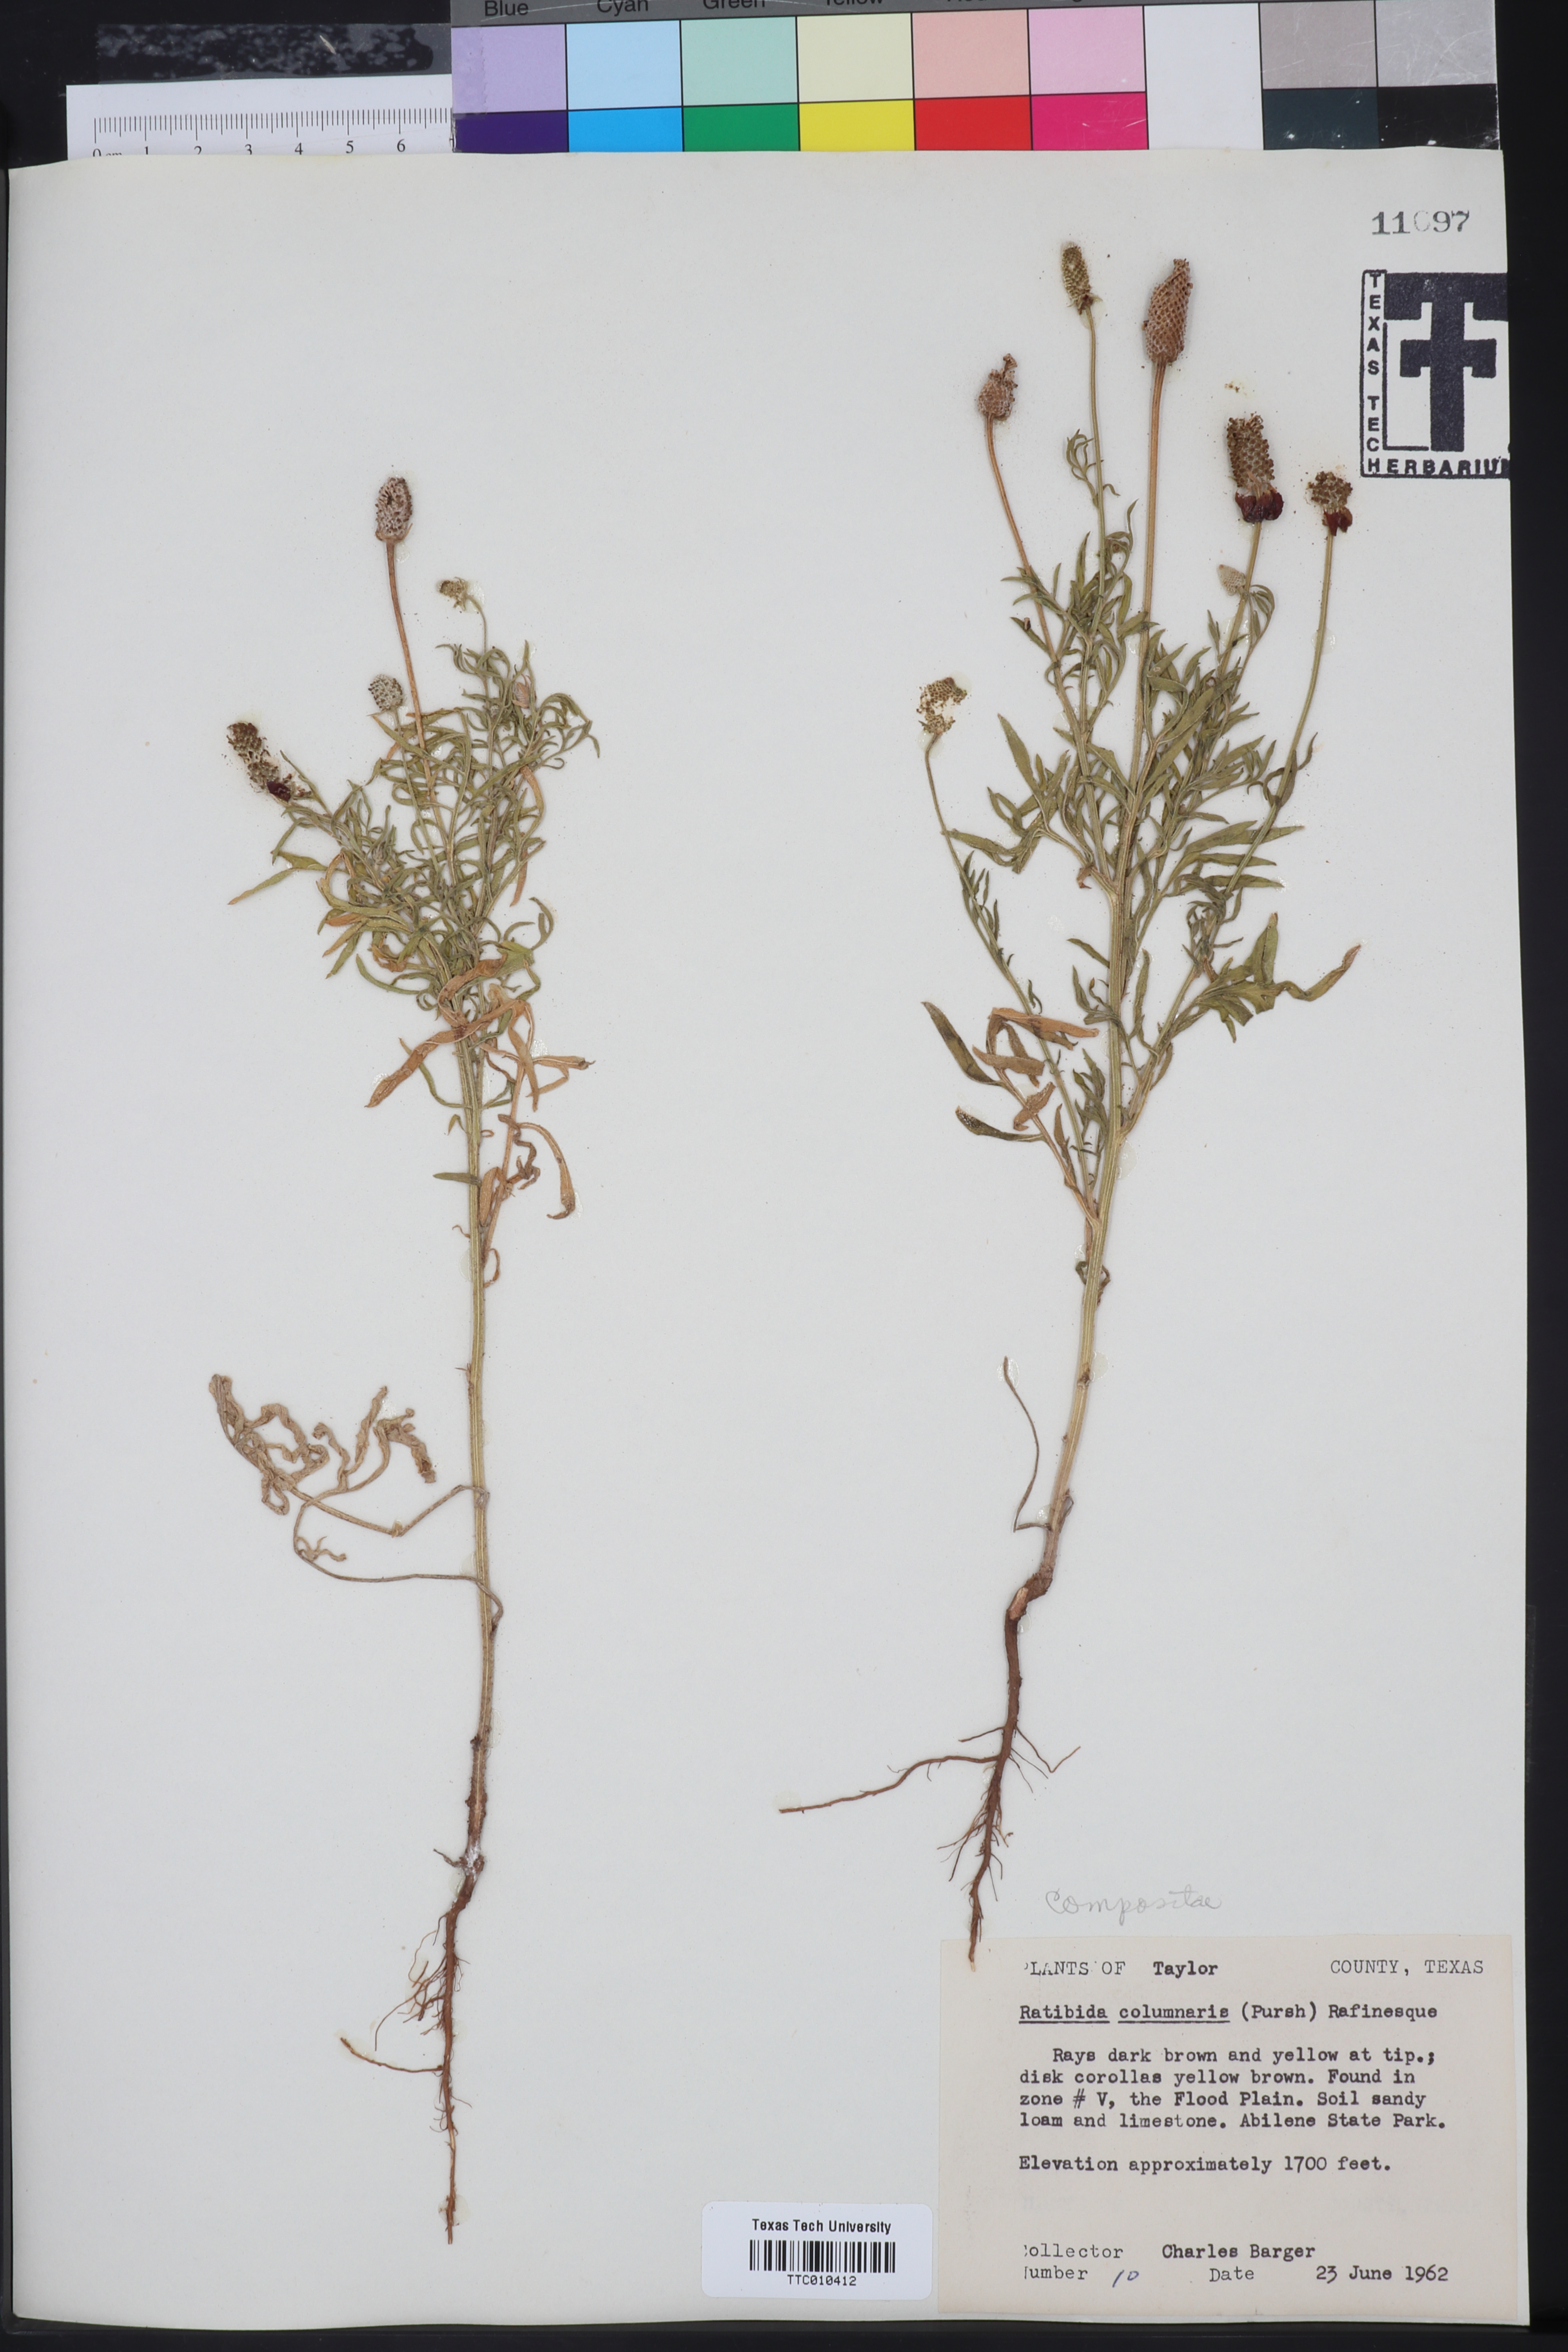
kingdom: Plantae
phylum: Tracheophyta
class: Magnoliopsida
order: Asterales
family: Asteraceae
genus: Ratibida
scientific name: Ratibida columnifera
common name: Prairie coneflower
